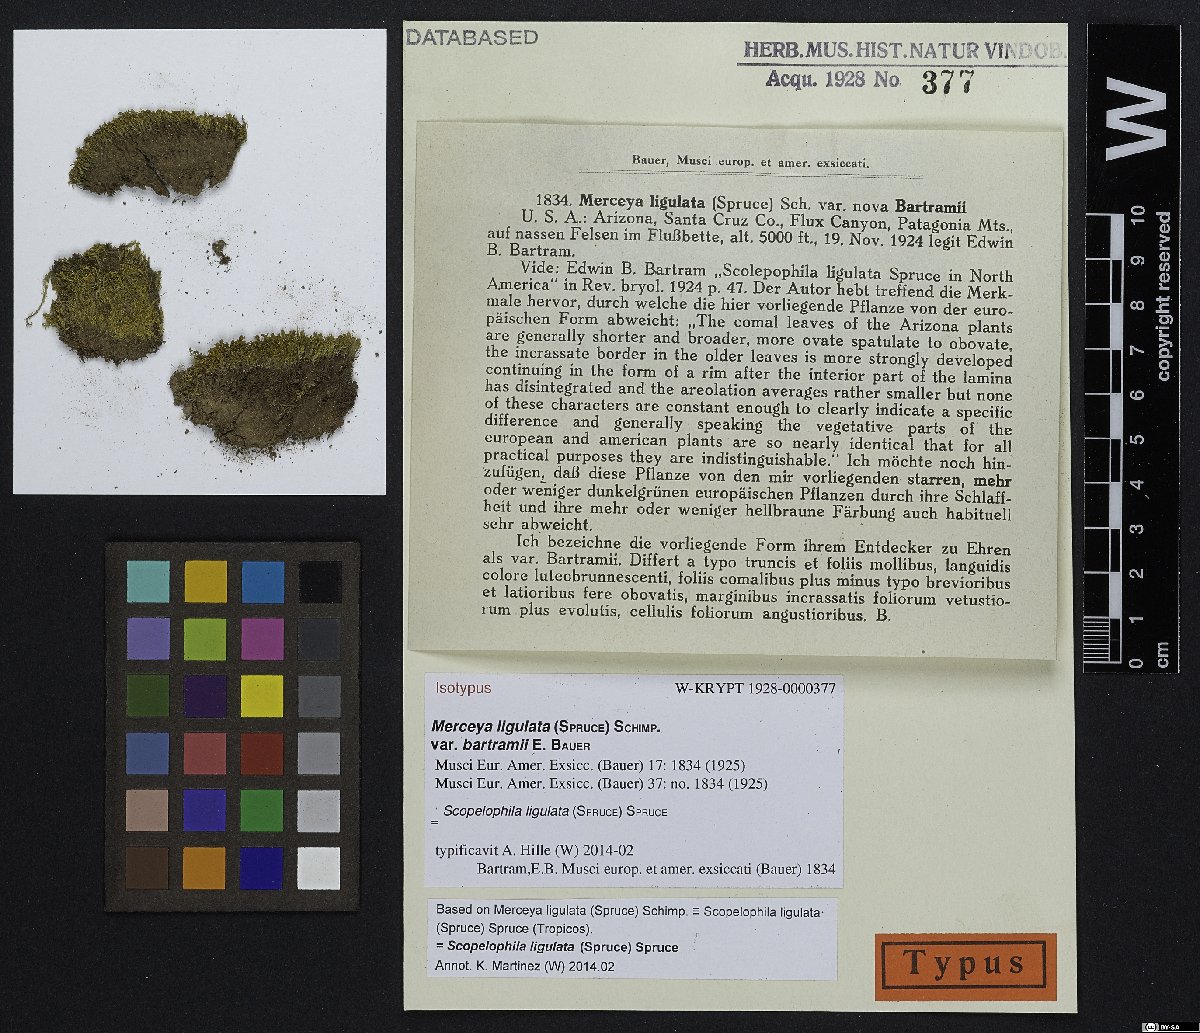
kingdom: Plantae
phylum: Bryophyta
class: Bryopsida
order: Pottiales
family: Pottiaceae
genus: Scopelophila
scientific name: Scopelophila ligulata
